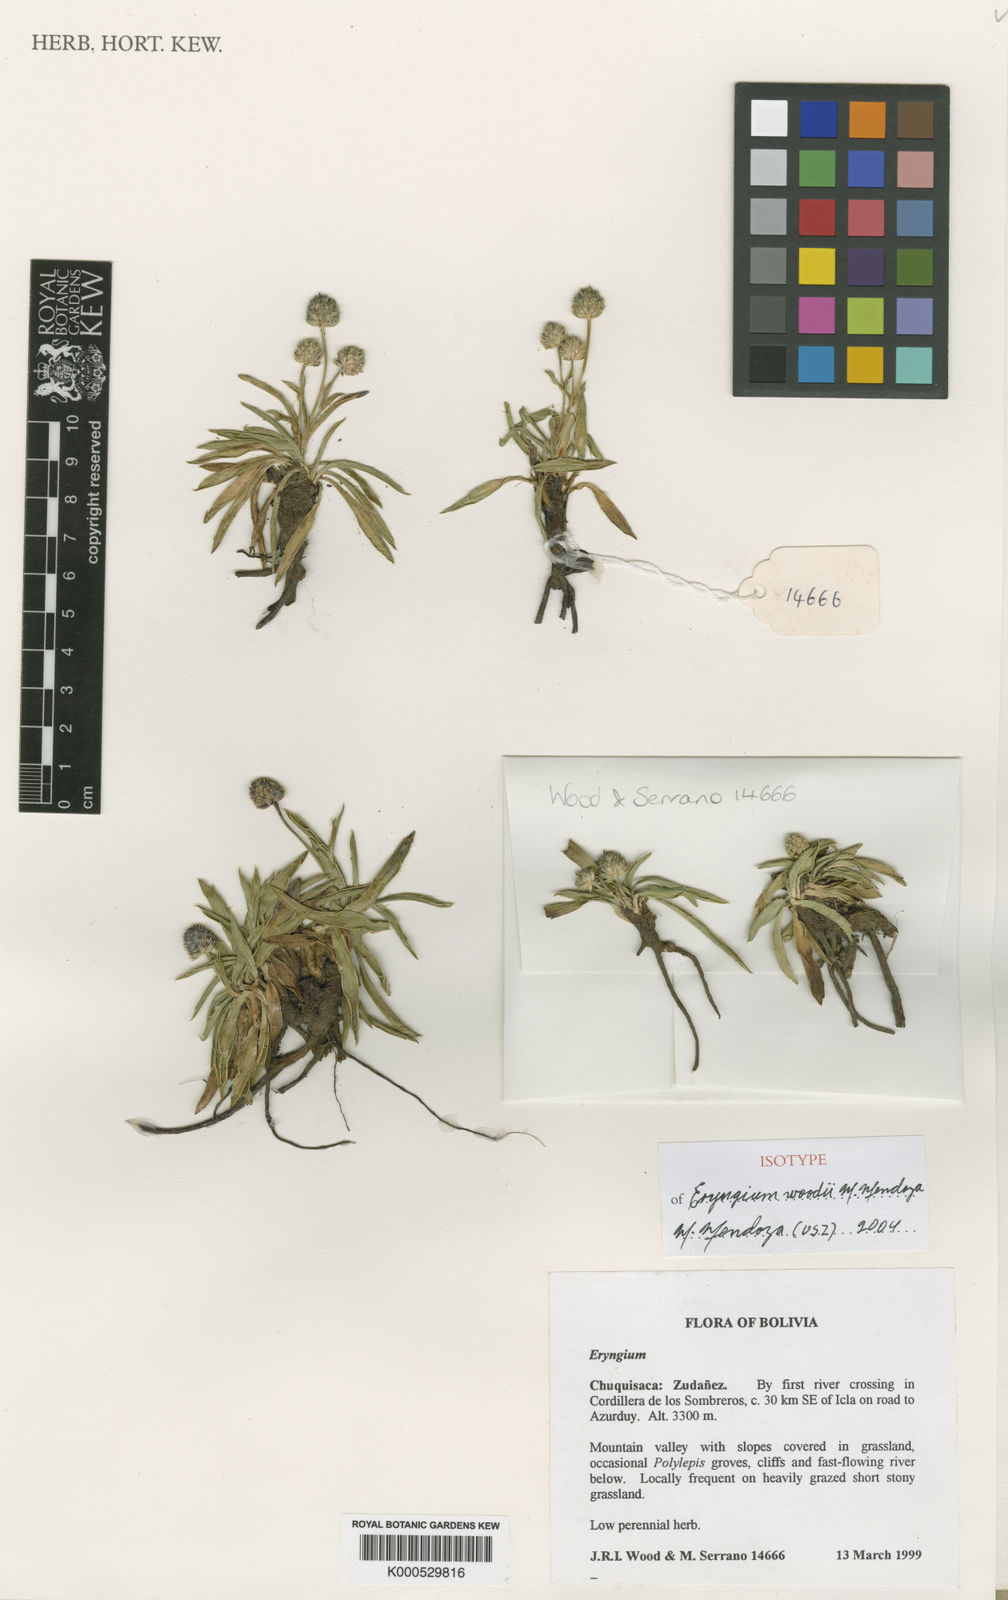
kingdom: Plantae
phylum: Tracheophyta
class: Magnoliopsida
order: Apiales
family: Apiaceae
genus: Eryngium
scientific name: Eryngium woodii
